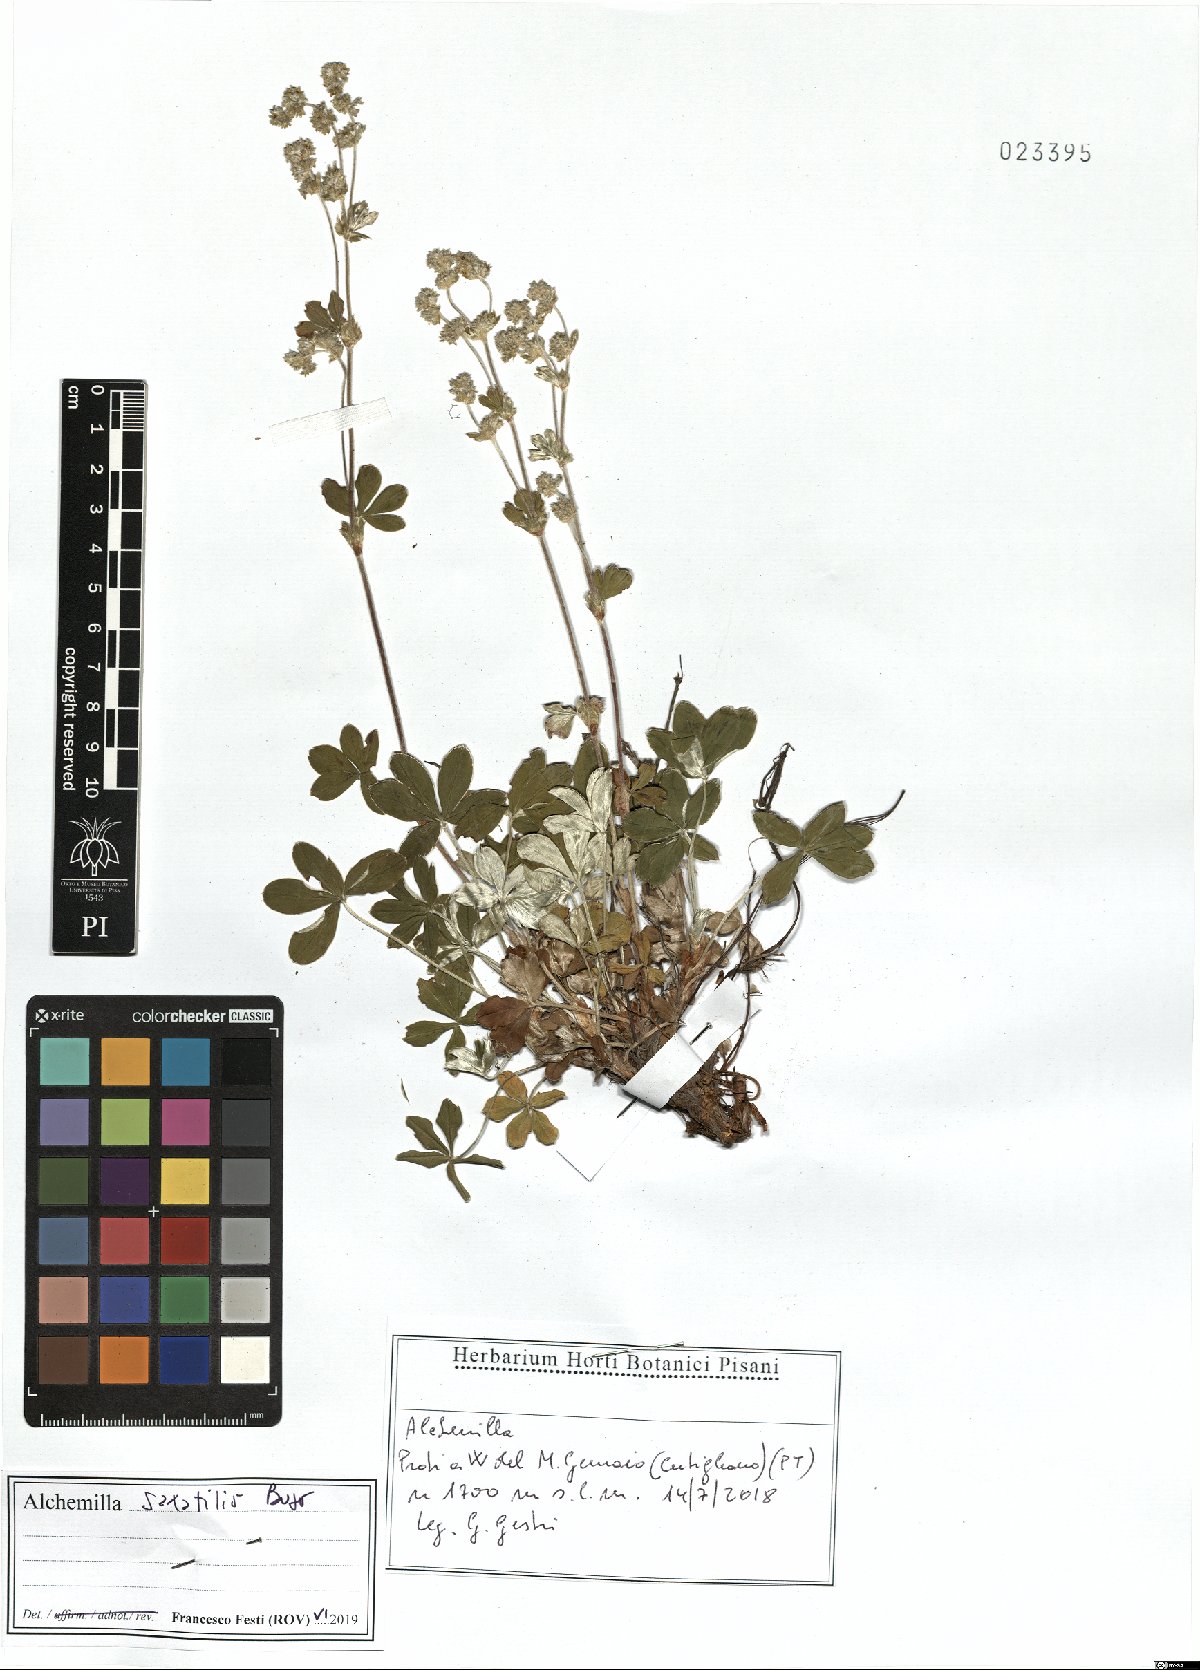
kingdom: Plantae
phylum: Tracheophyta
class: Magnoliopsida
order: Rosales
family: Rosaceae
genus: Alchemilla
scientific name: Alchemilla saxatilis
